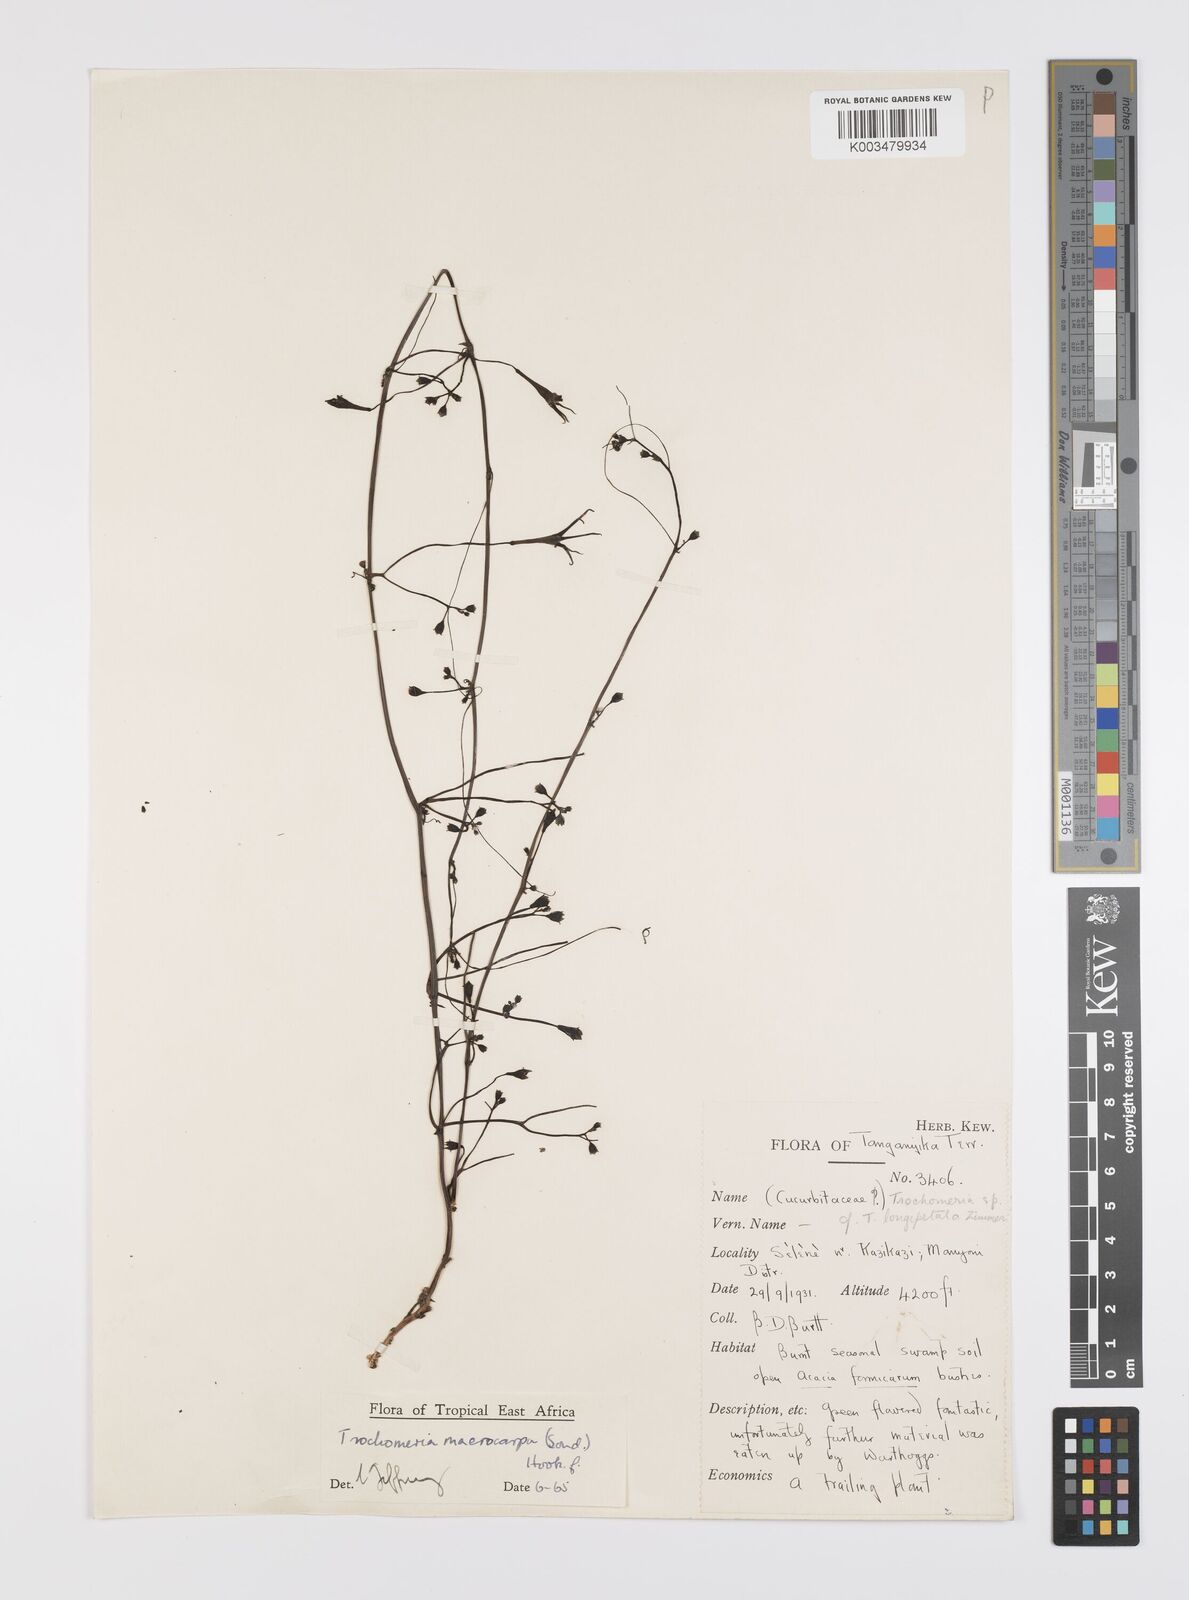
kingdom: Plantae
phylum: Tracheophyta
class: Magnoliopsida
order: Cucurbitales
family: Cucurbitaceae
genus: Trochomeria
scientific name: Trochomeria macrocarpa
